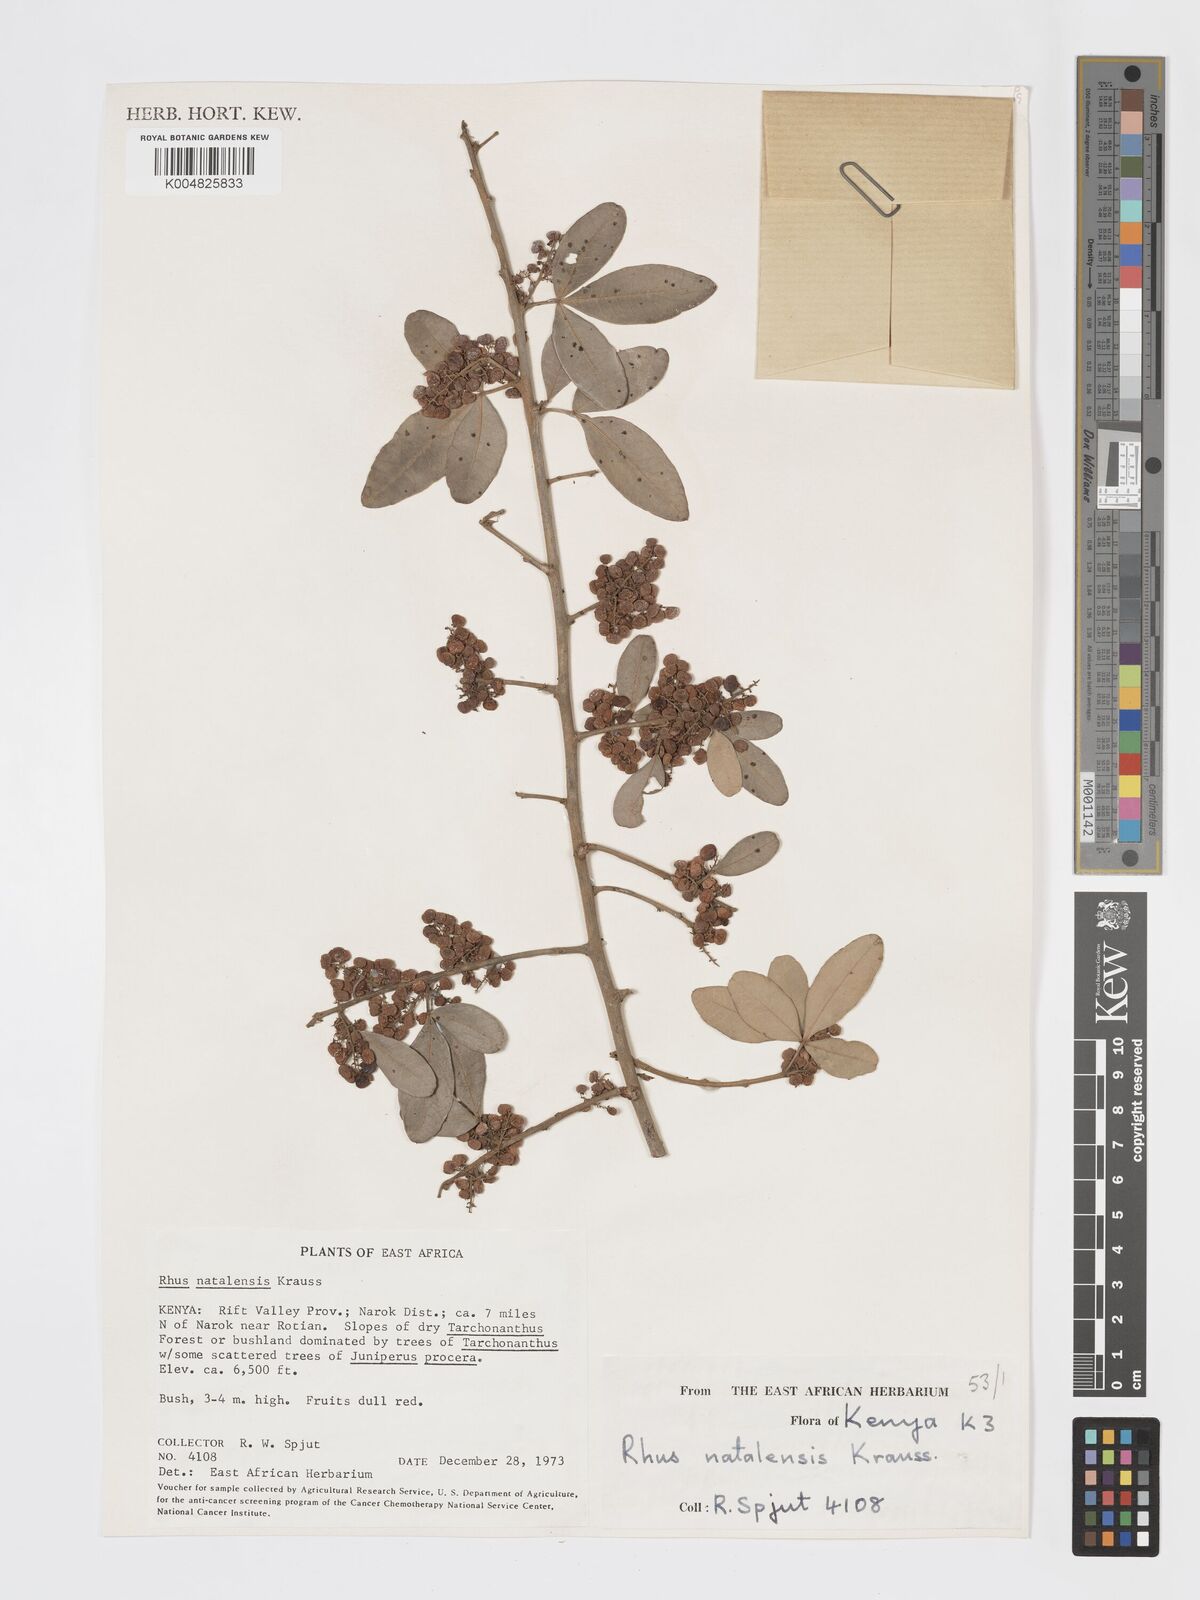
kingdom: Plantae
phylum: Tracheophyta
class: Magnoliopsida
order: Sapindales
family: Anacardiaceae
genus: Searsia
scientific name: Searsia natalensis
